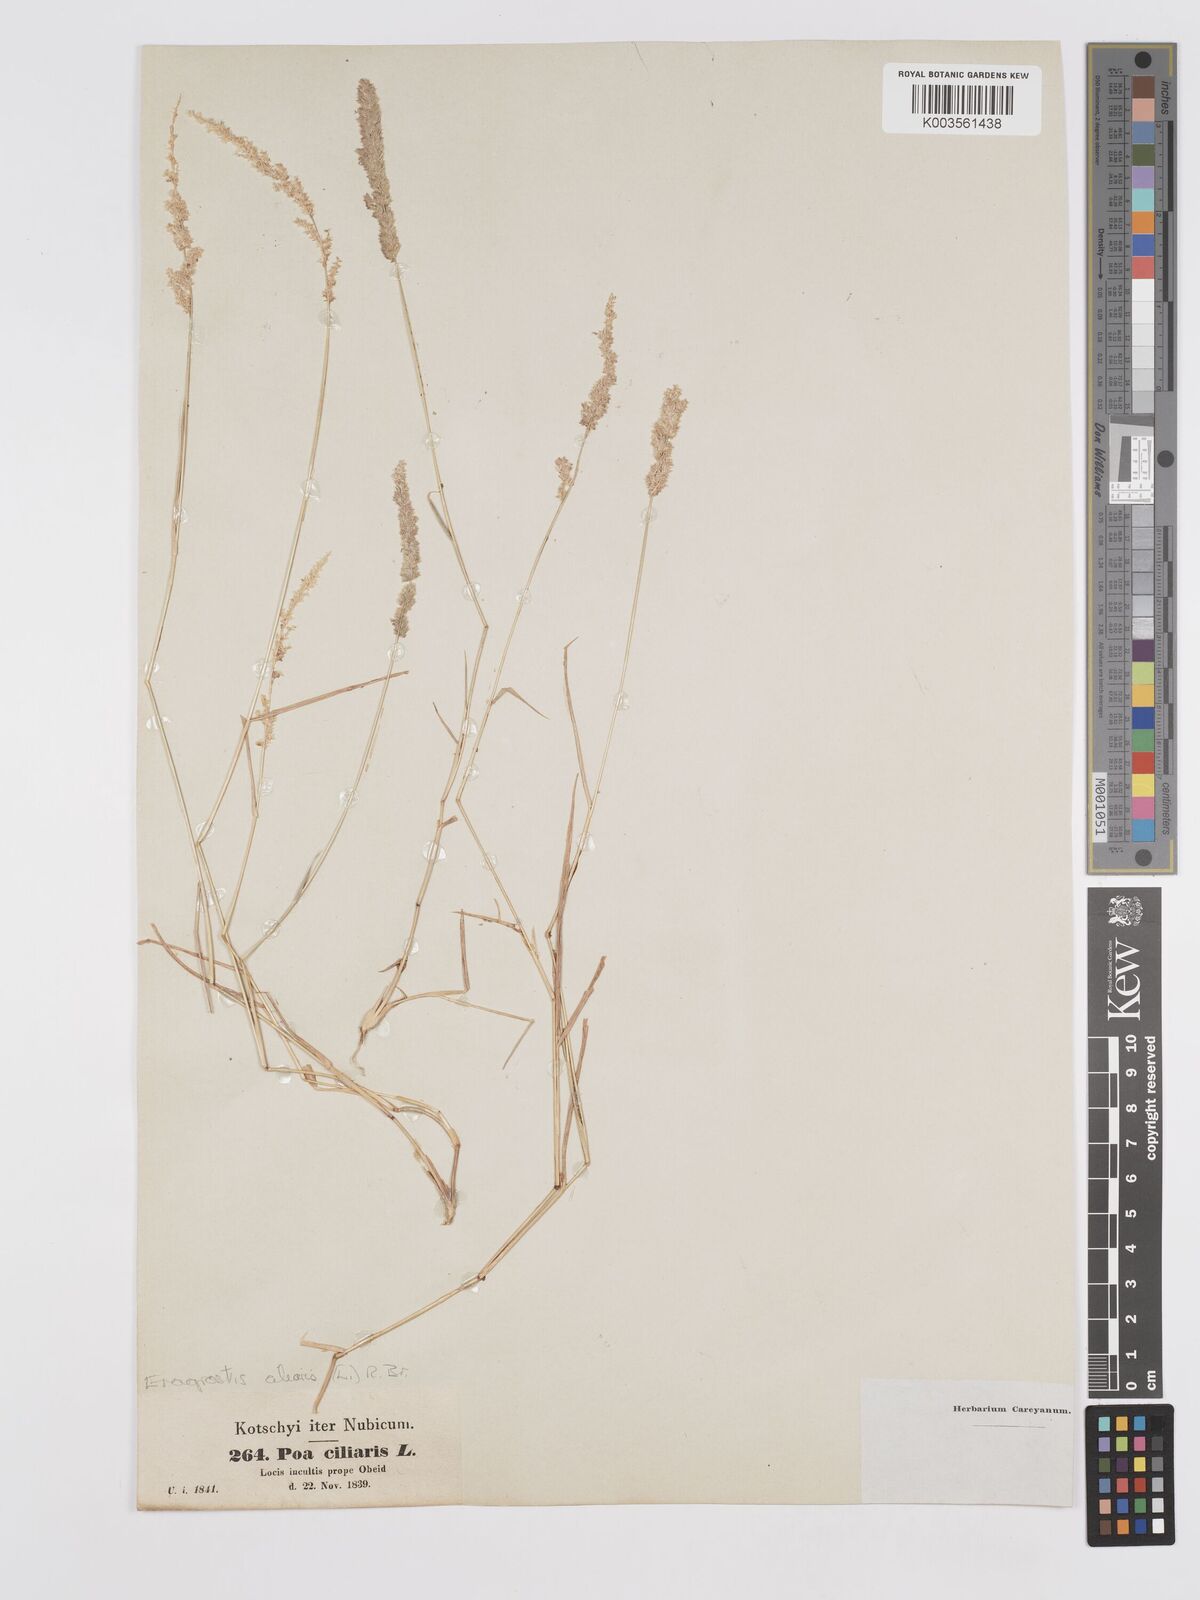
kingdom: Plantae
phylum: Tracheophyta
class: Liliopsida
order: Poales
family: Poaceae
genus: Eragrostis
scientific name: Eragrostis ciliaris
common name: Gophertail lovegrass
